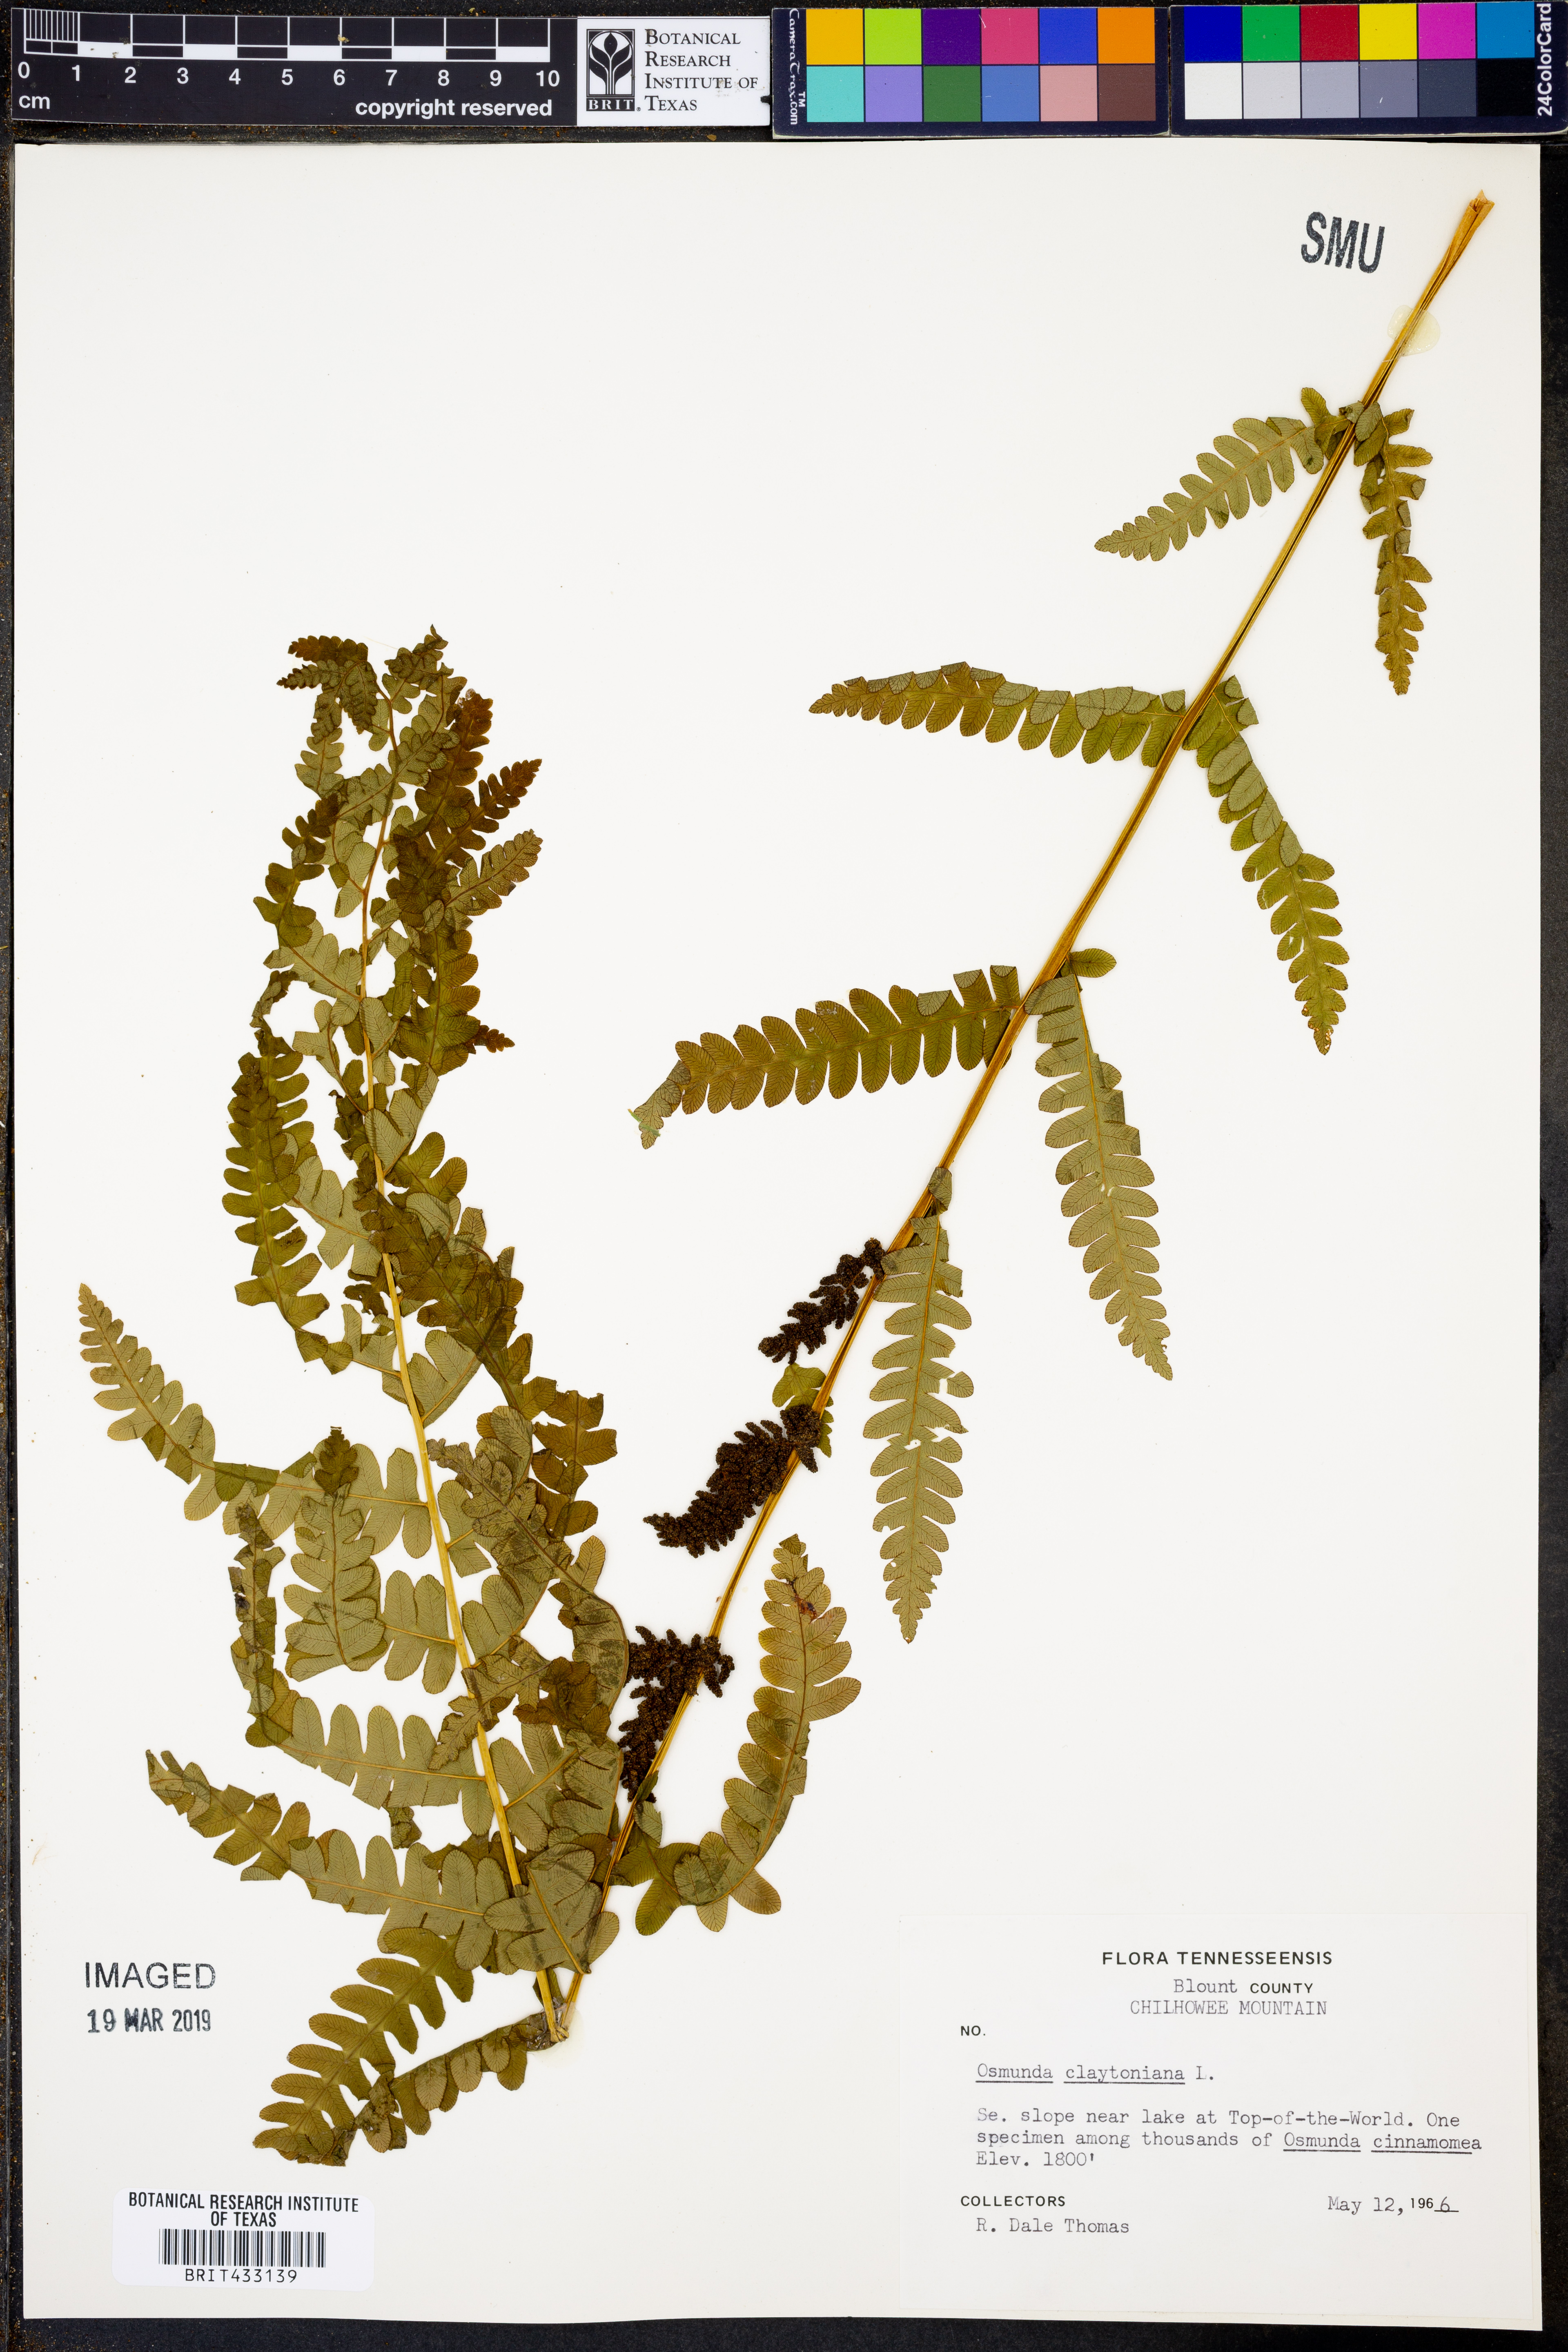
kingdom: Plantae
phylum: Tracheophyta
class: Polypodiopsida
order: Osmundales
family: Osmundaceae
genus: Claytosmunda
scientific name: Claytosmunda claytoniana
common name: Clayton's fern
